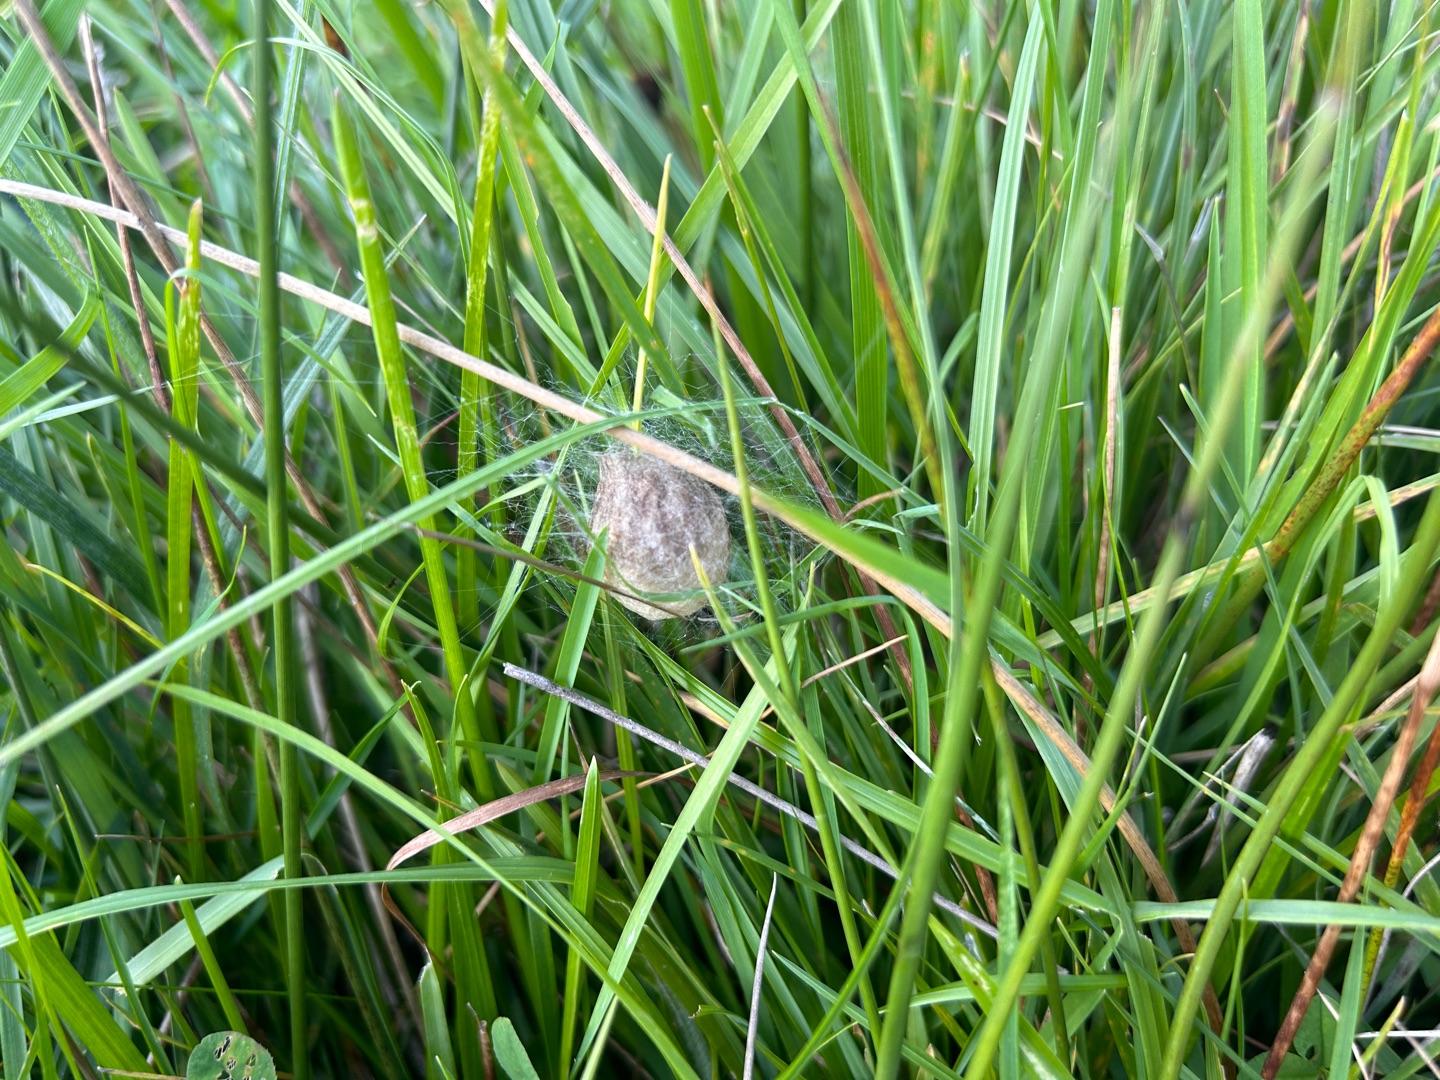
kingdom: Animalia
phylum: Arthropoda
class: Arachnida
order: Araneae
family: Araneidae
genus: Argiope
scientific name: Argiope bruennichi
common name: Hvepseedderkop
